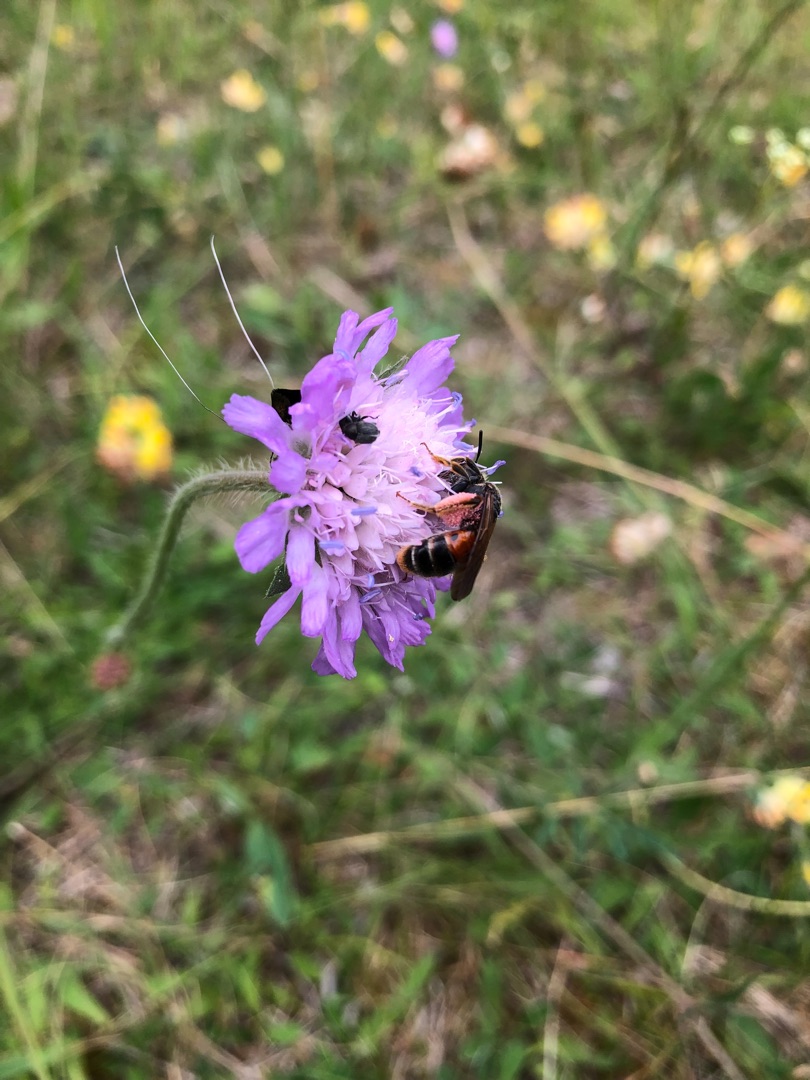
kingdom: Plantae
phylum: Tracheophyta
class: Magnoliopsida
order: Dipsacales
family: Caprifoliaceae
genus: Knautia
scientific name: Knautia arvensis
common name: Blåhat
